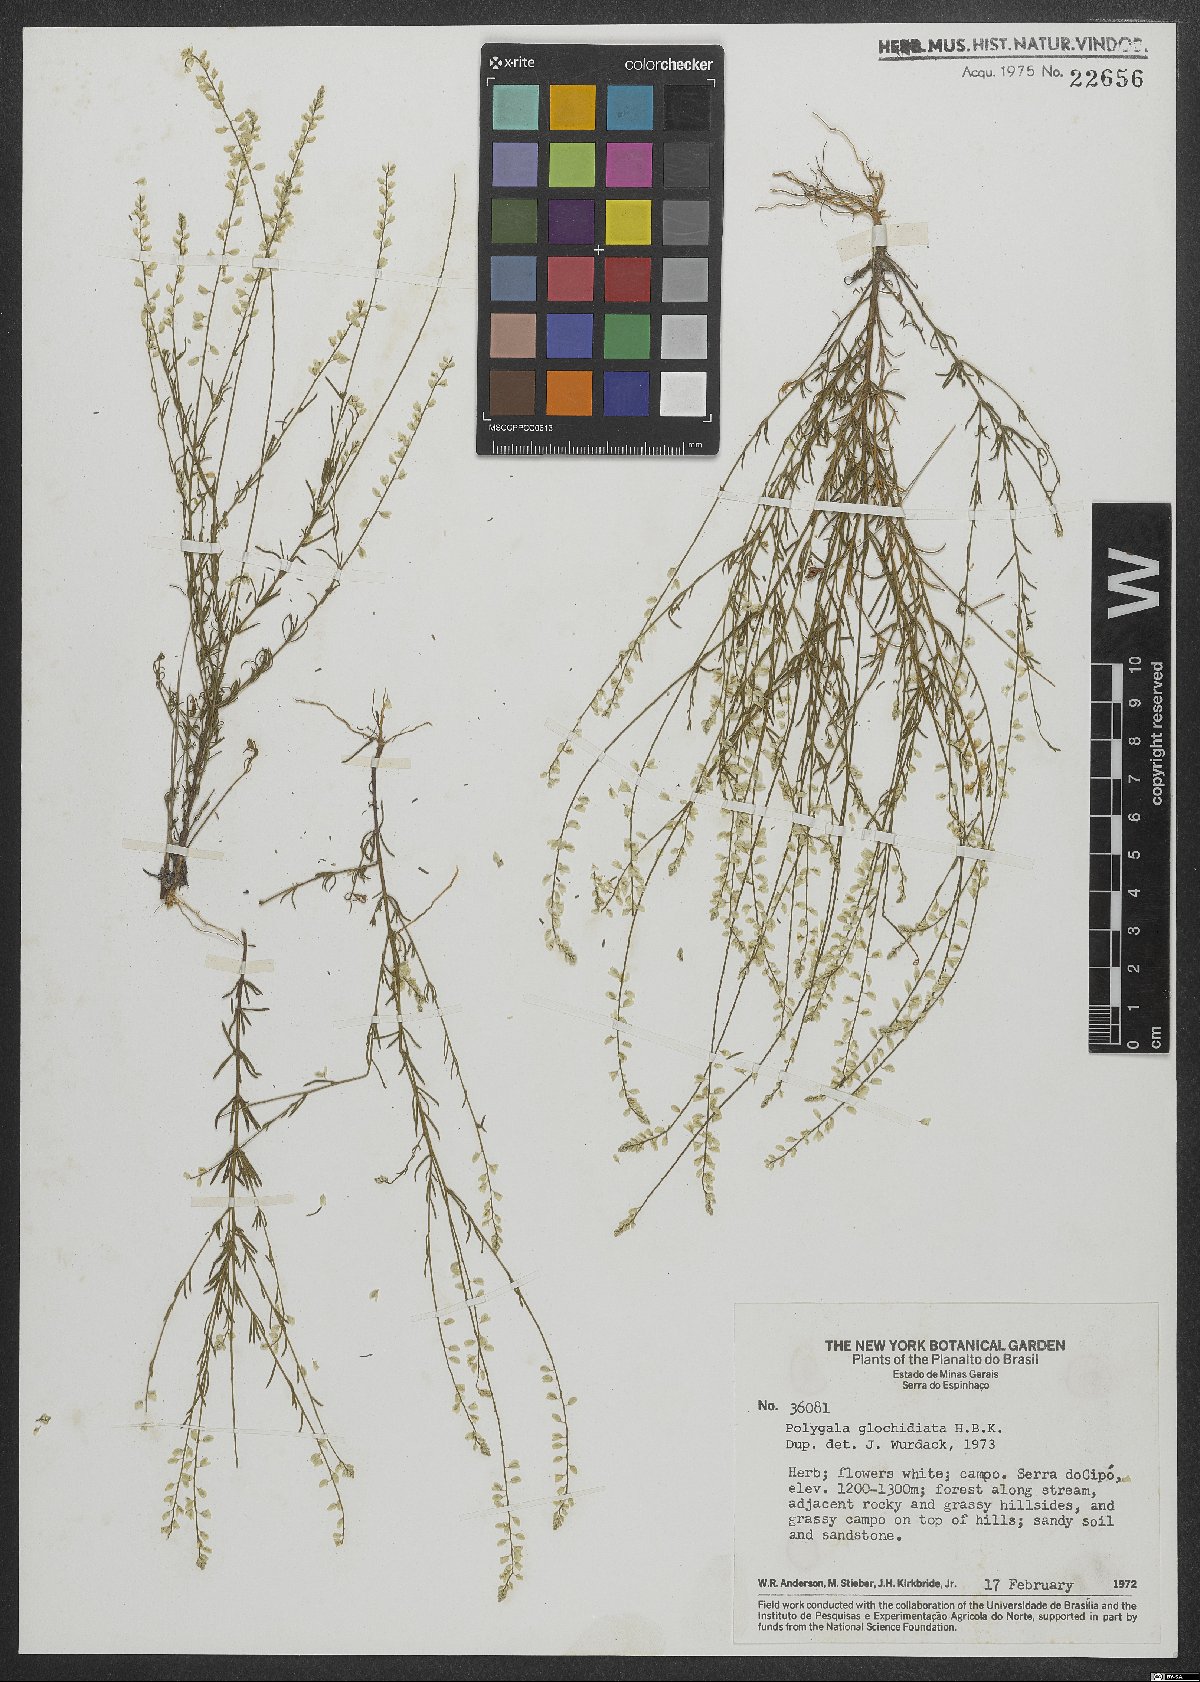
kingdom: Plantae
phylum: Tracheophyta
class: Magnoliopsida
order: Fabales
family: Polygalaceae
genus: Polygala
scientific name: Polygala Senega glochidata
